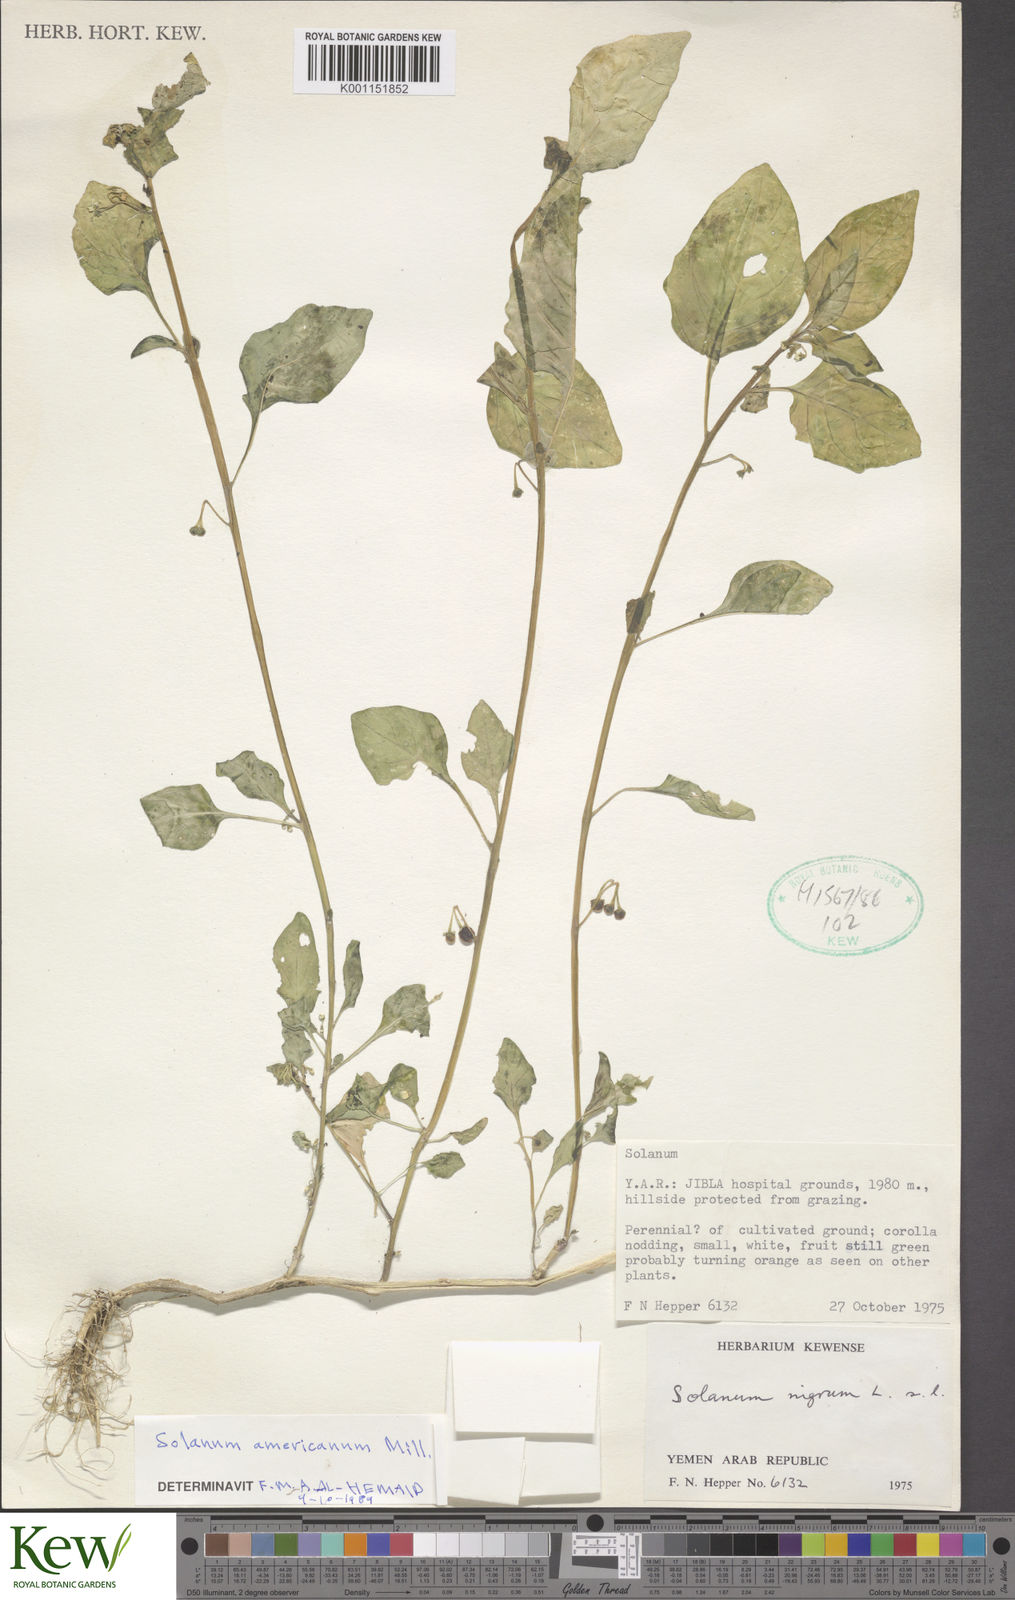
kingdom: Plantae
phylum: Tracheophyta
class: Magnoliopsida
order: Solanales
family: Solanaceae
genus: Solanum
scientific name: Solanum americanum
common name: American black nightshade
